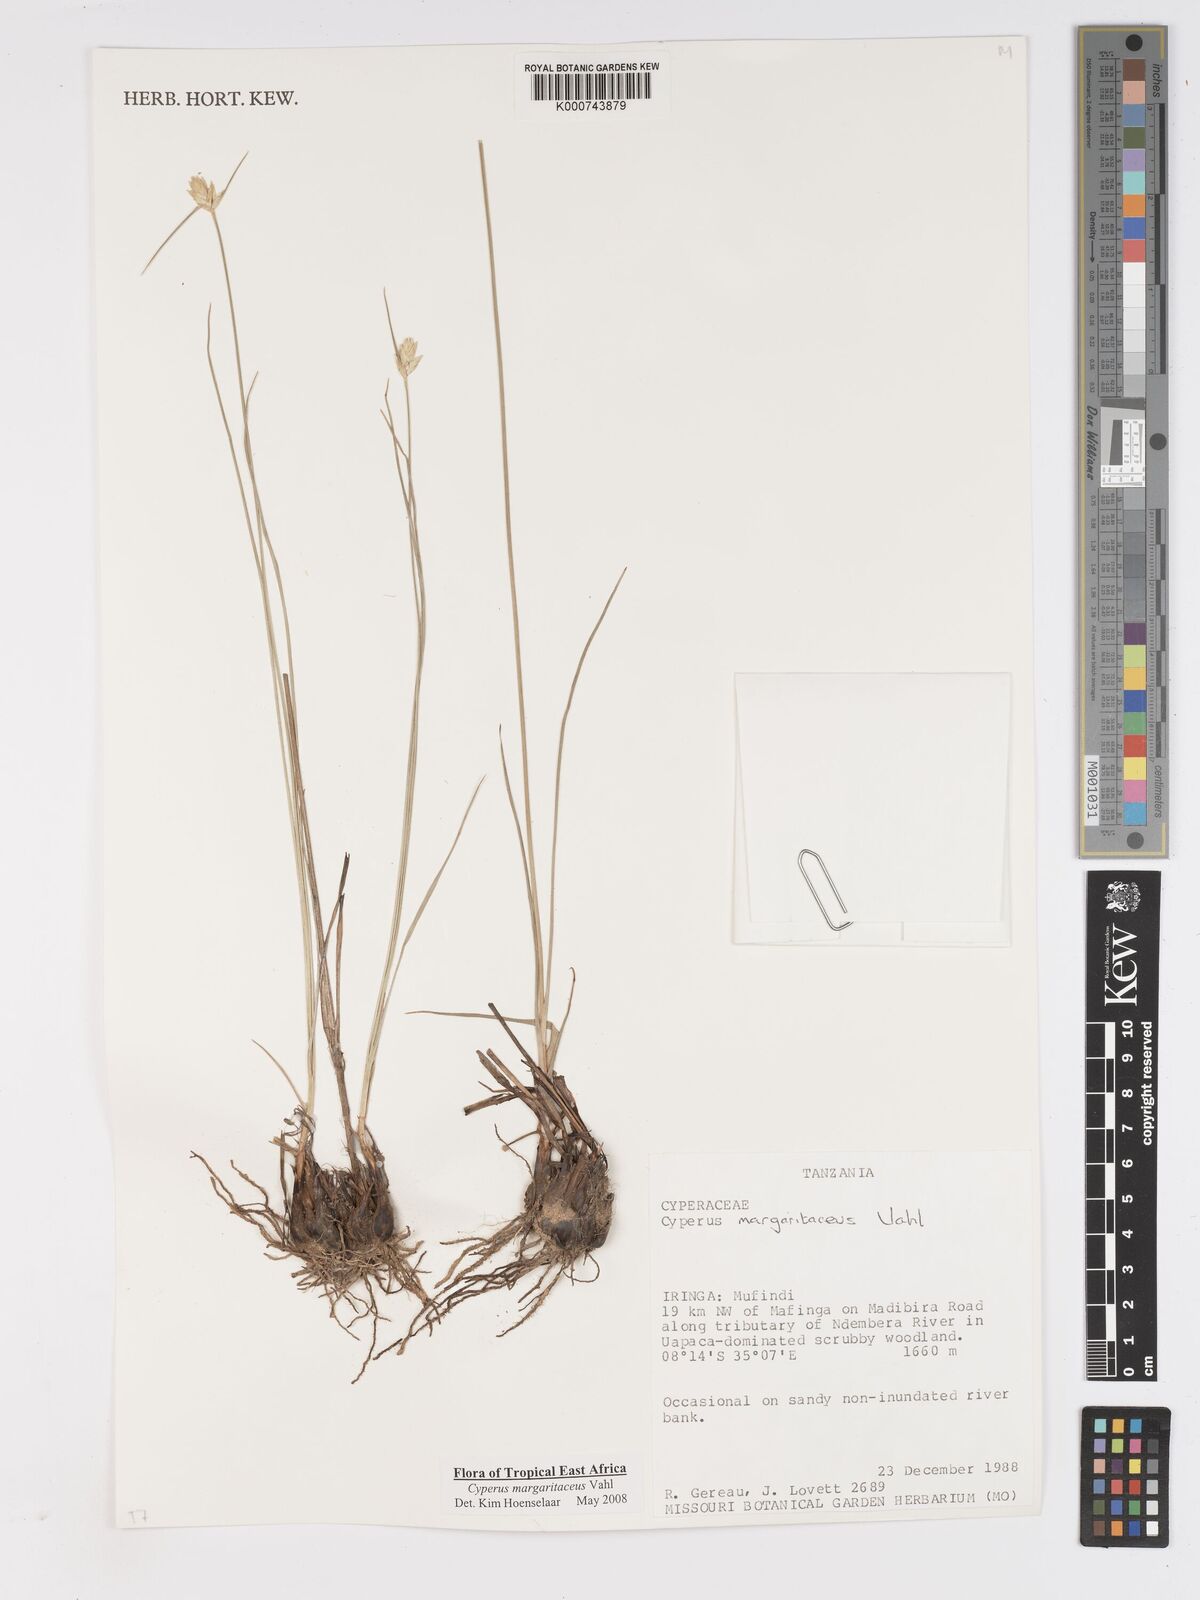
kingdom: Plantae
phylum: Tracheophyta
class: Liliopsida
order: Poales
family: Cyperaceae
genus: Cyperus
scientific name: Cyperus margaritaceus
